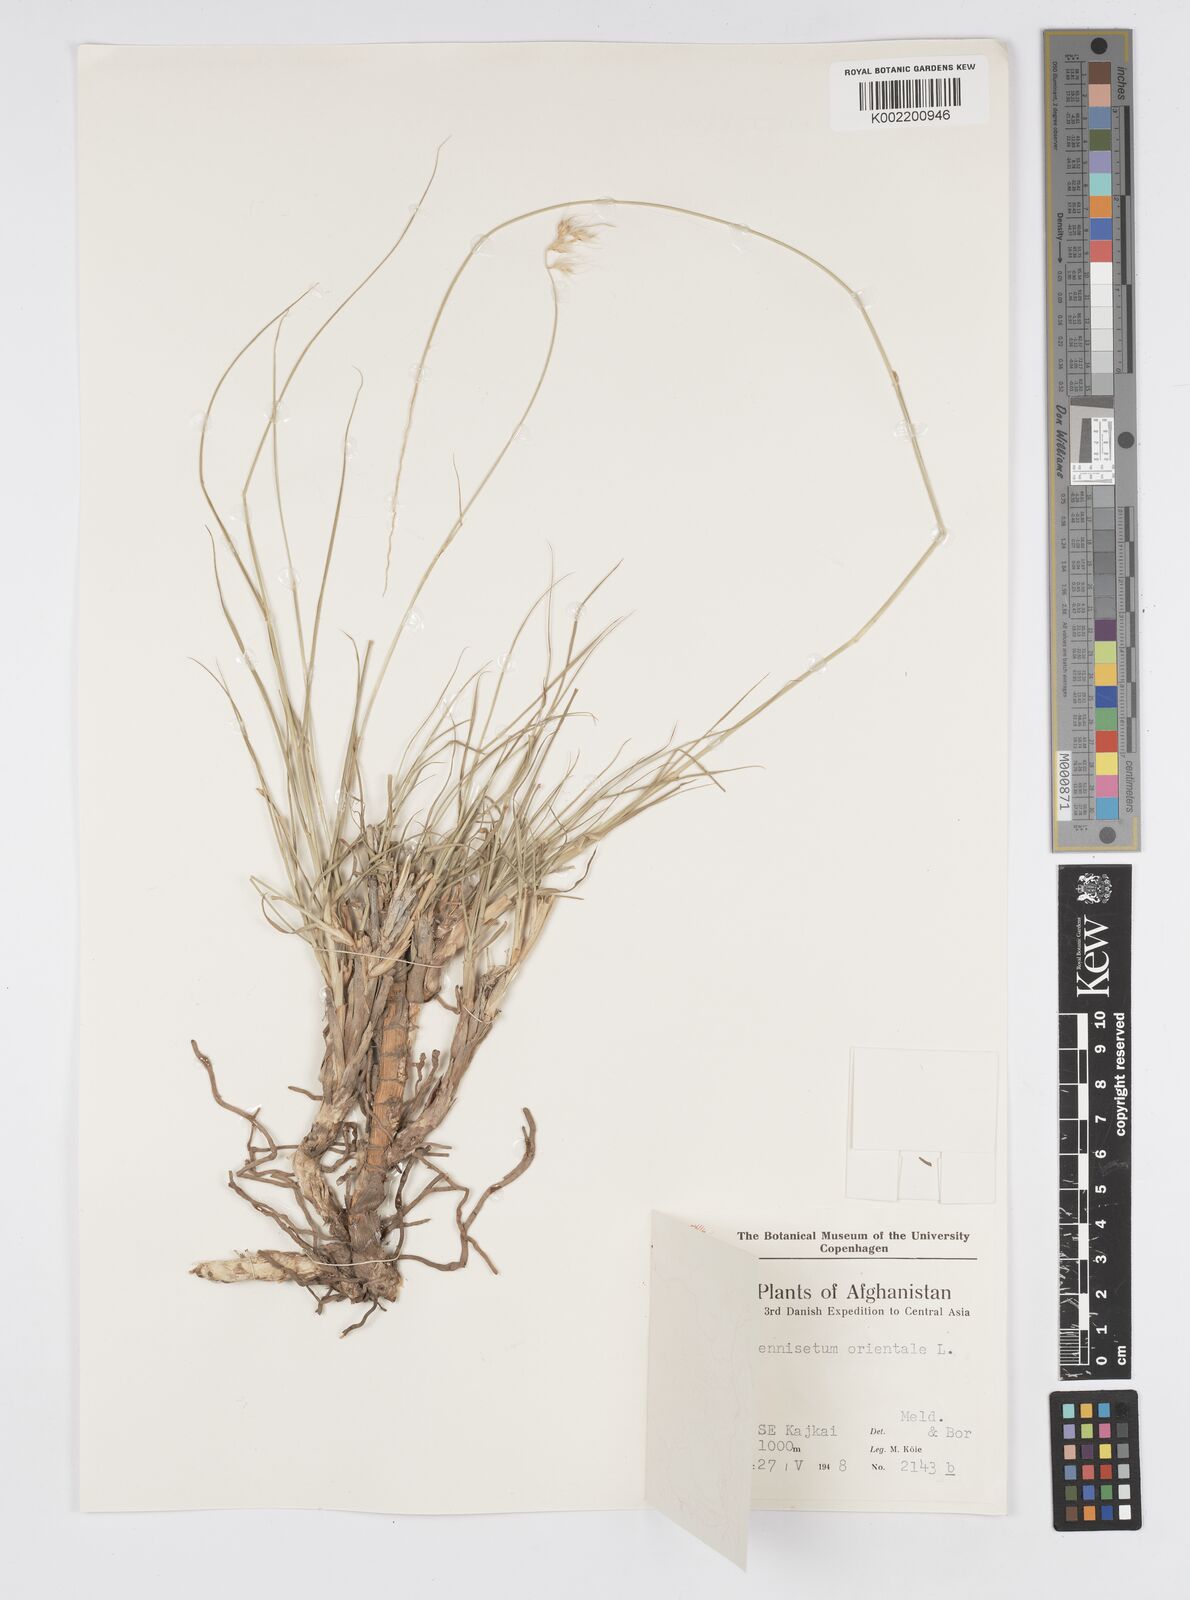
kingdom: Plantae
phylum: Tracheophyta
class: Liliopsida
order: Poales
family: Poaceae
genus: Cenchrus
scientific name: Cenchrus orientalis
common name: Oriental fountain grass
